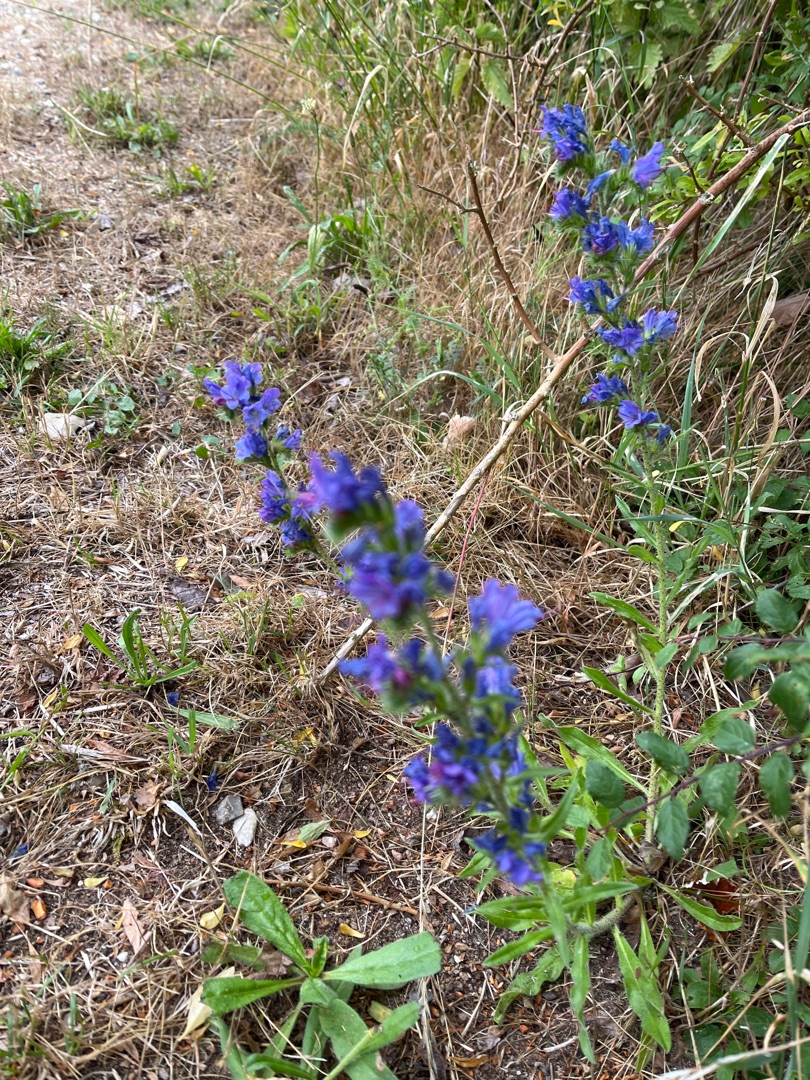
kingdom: Plantae
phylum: Tracheophyta
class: Magnoliopsida
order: Boraginales
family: Boraginaceae
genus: Echium
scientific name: Echium
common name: Slangehovedslægten
